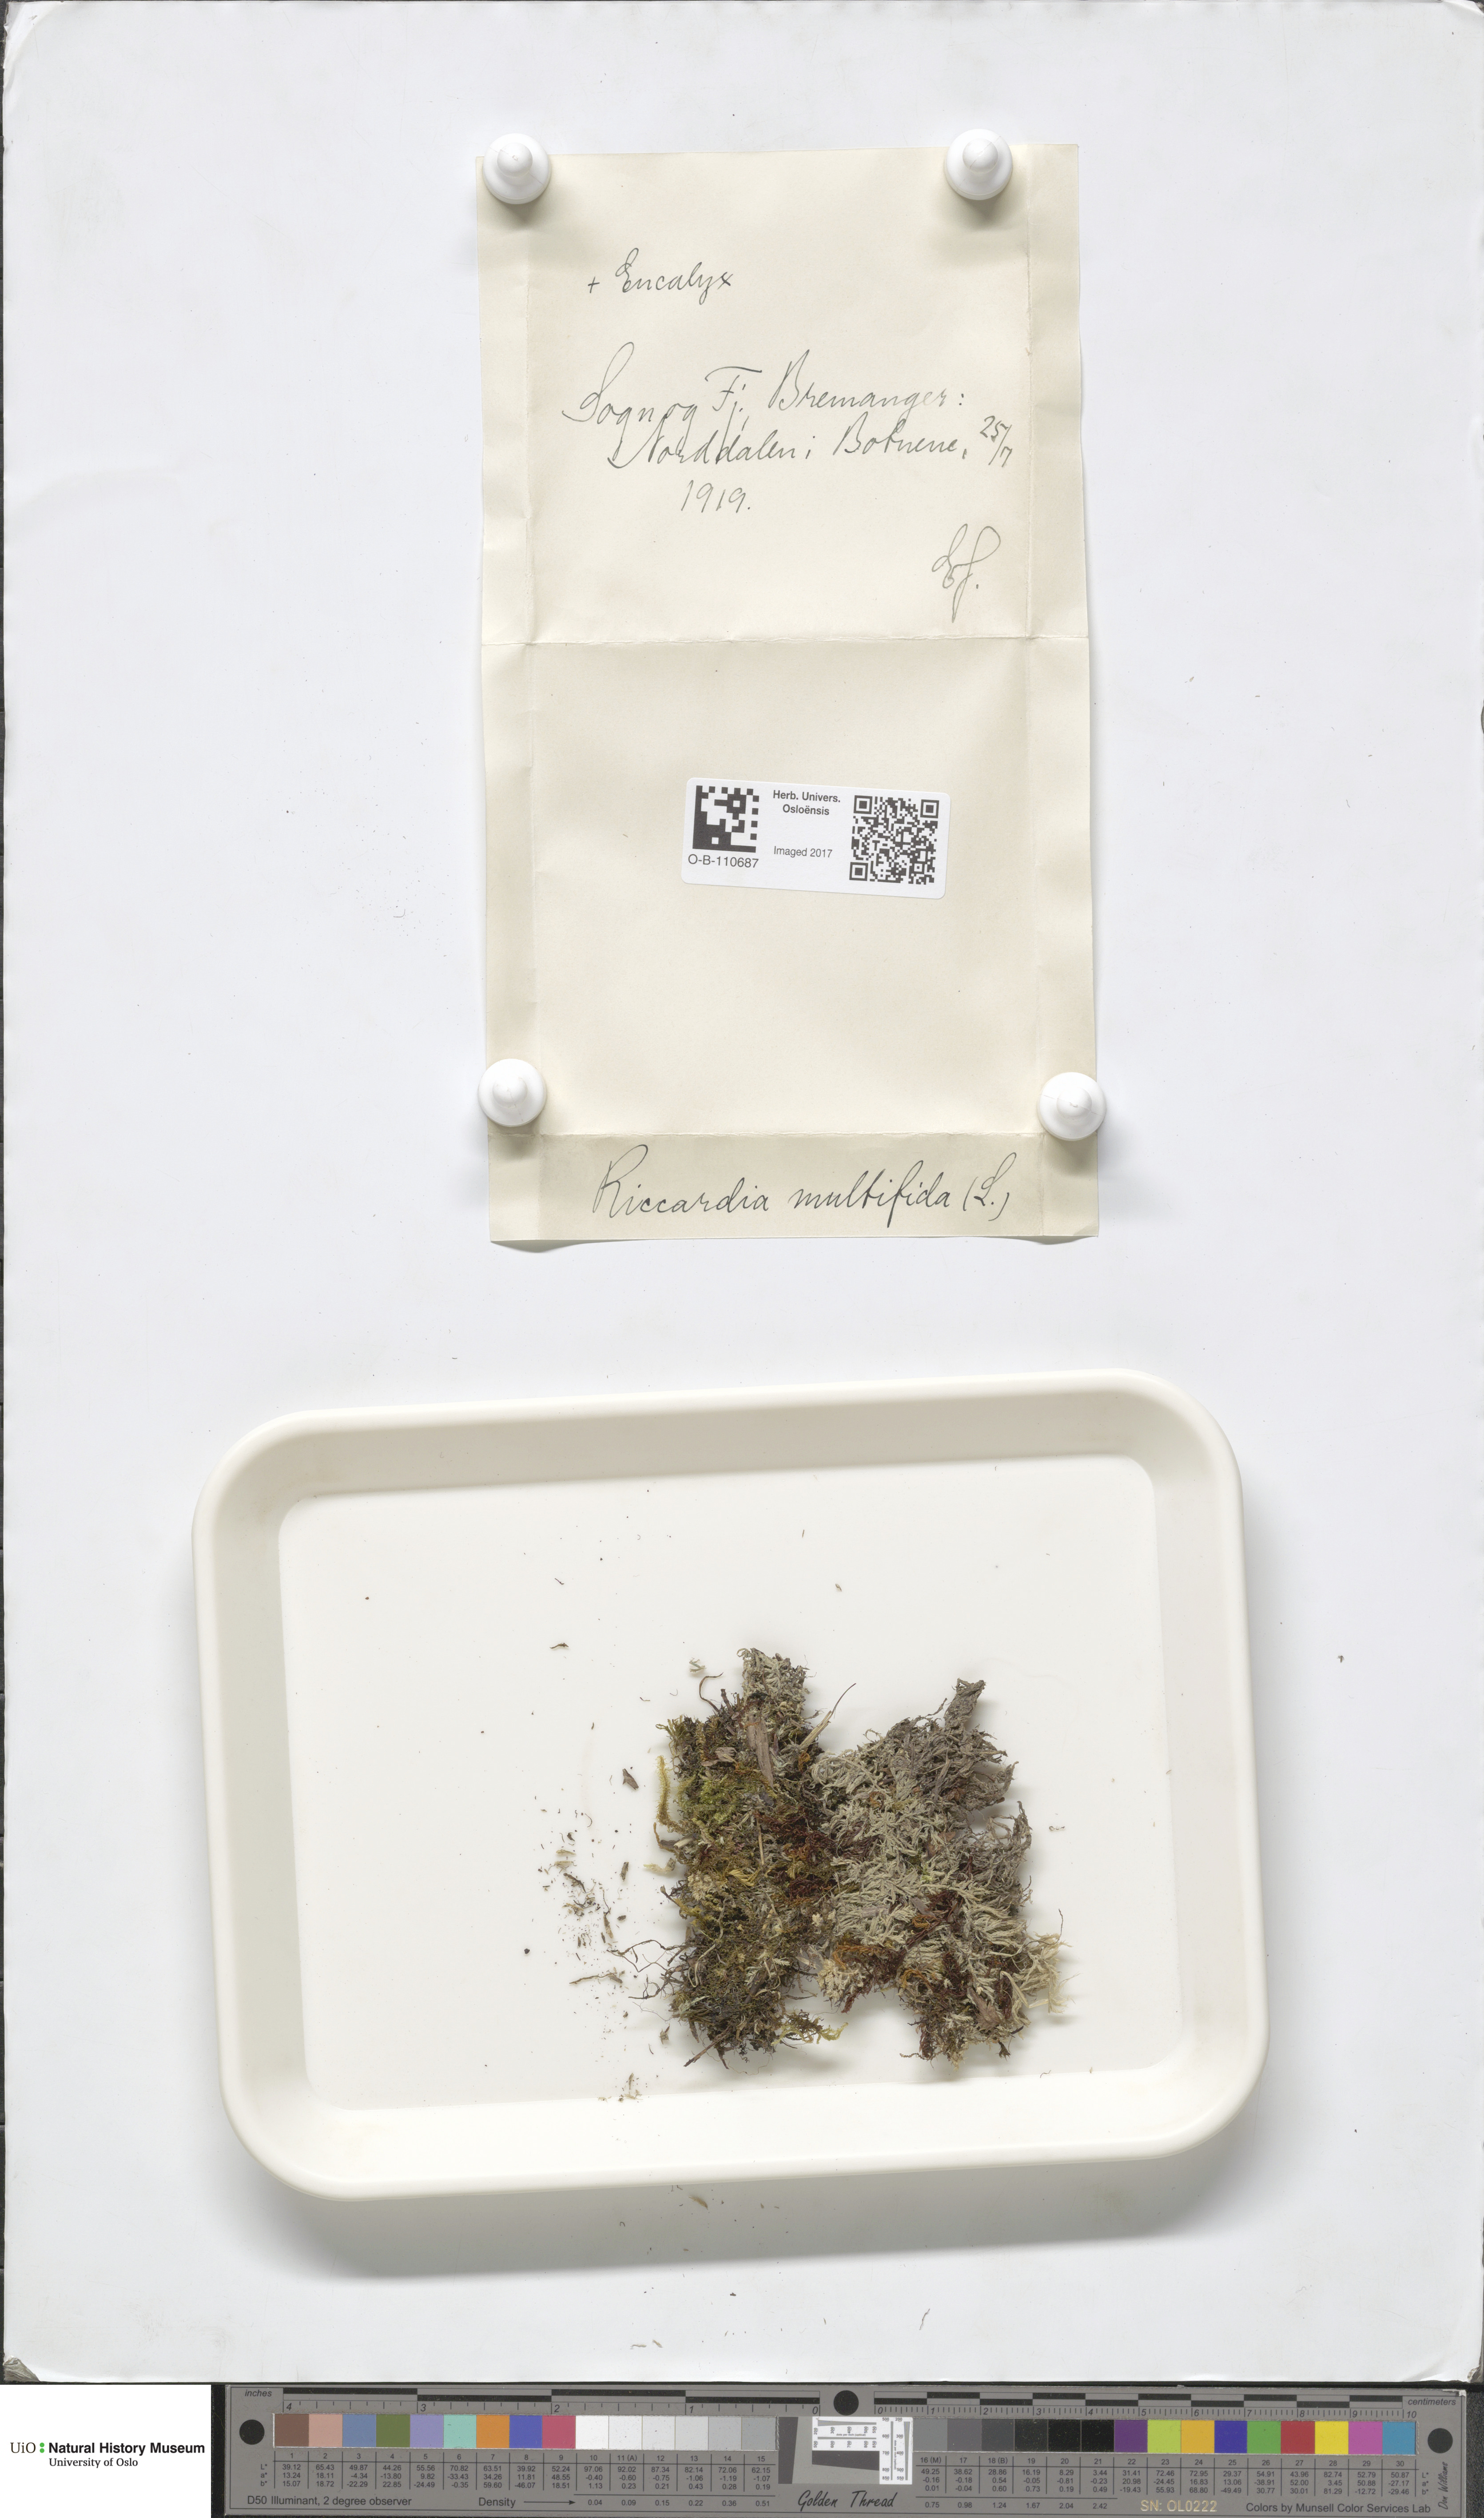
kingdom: Plantae
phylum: Marchantiophyta
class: Jungermanniopsida
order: Metzgeriales
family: Aneuraceae
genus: Riccardia
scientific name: Riccardia palmata
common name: Palmate germanderwort
